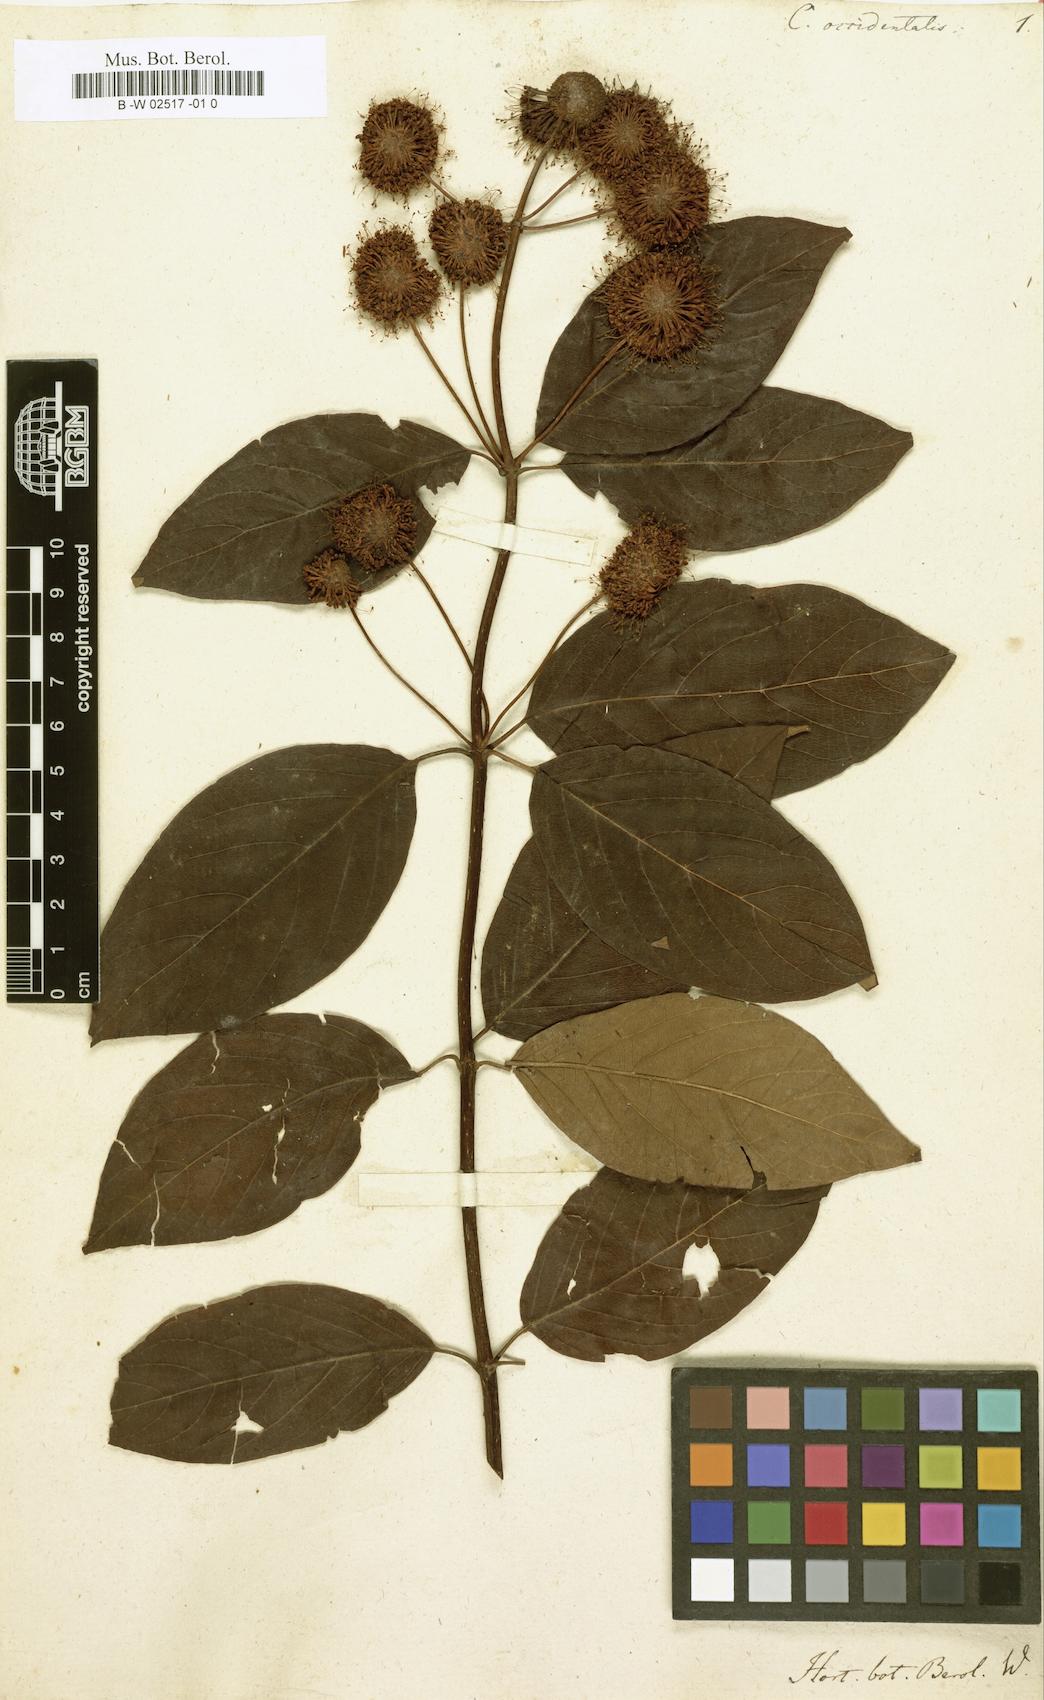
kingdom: Plantae
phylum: Tracheophyta
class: Magnoliopsida
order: Gentianales
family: Rubiaceae
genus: Cephalanthus
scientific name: Cephalanthus occidentalis
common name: Button-willow
